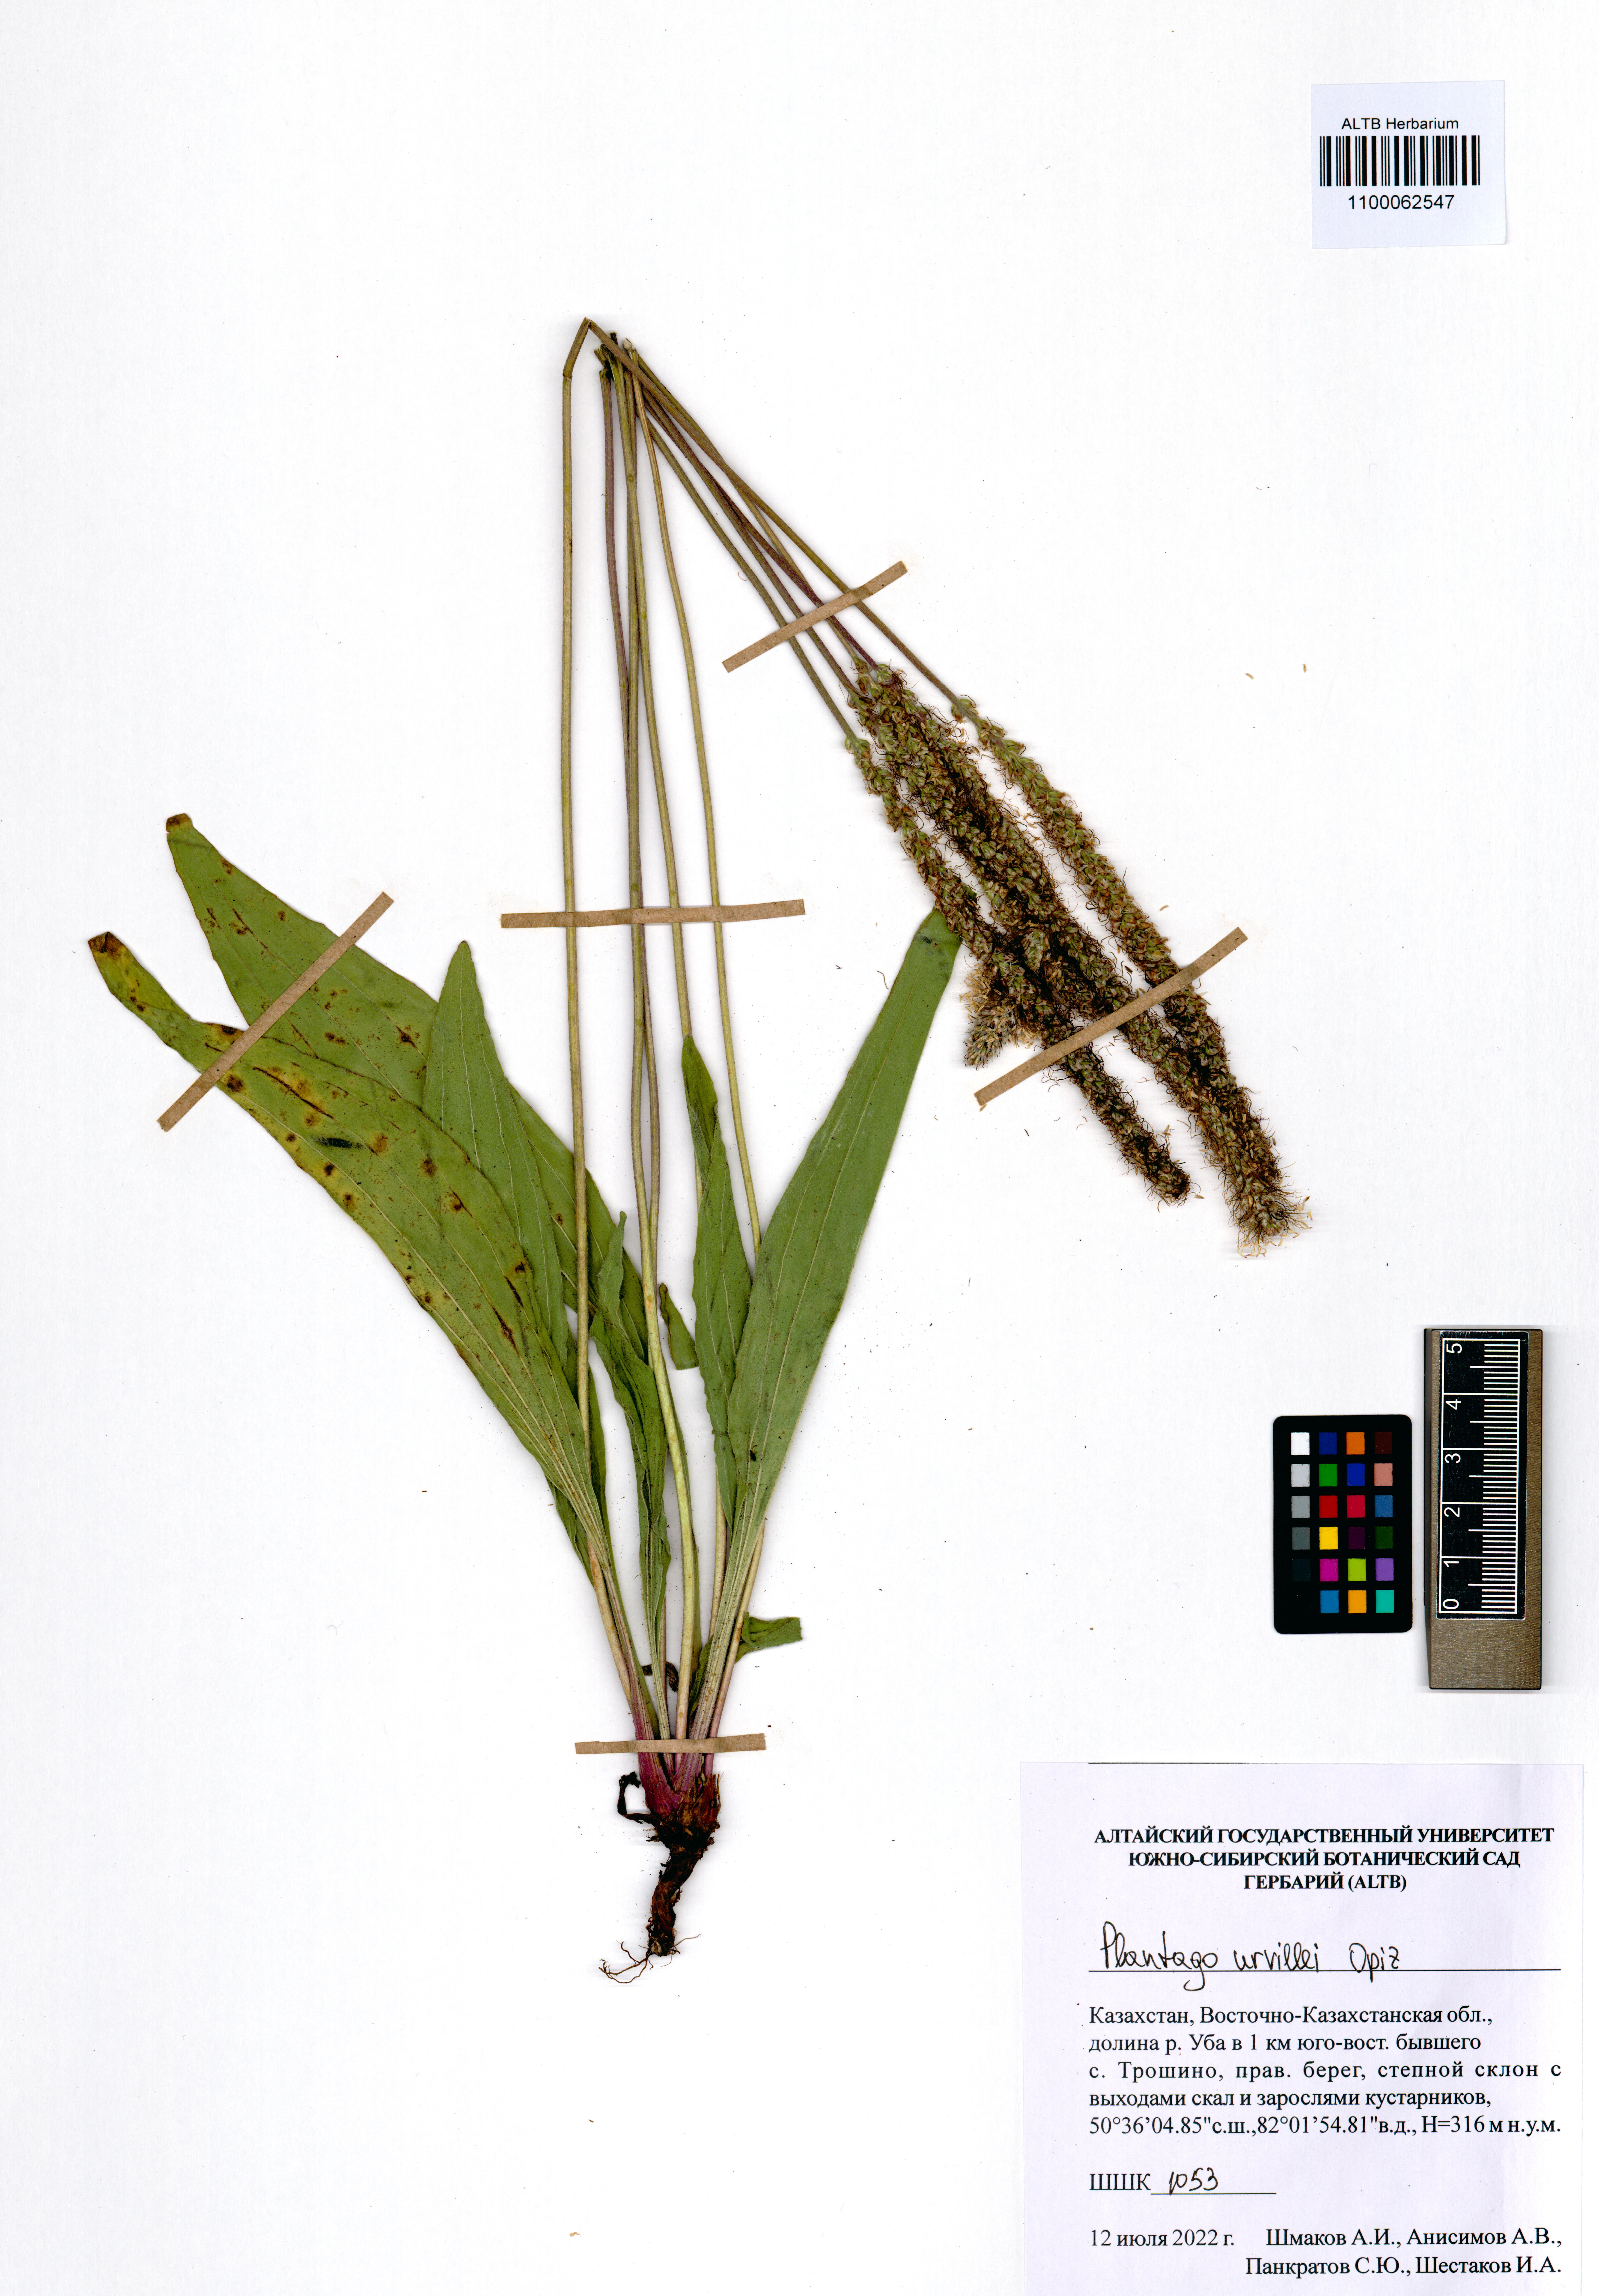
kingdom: Plantae
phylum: Tracheophyta
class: Magnoliopsida
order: Lamiales
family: Plantaginaceae
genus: Plantago
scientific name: Plantago urvillei
